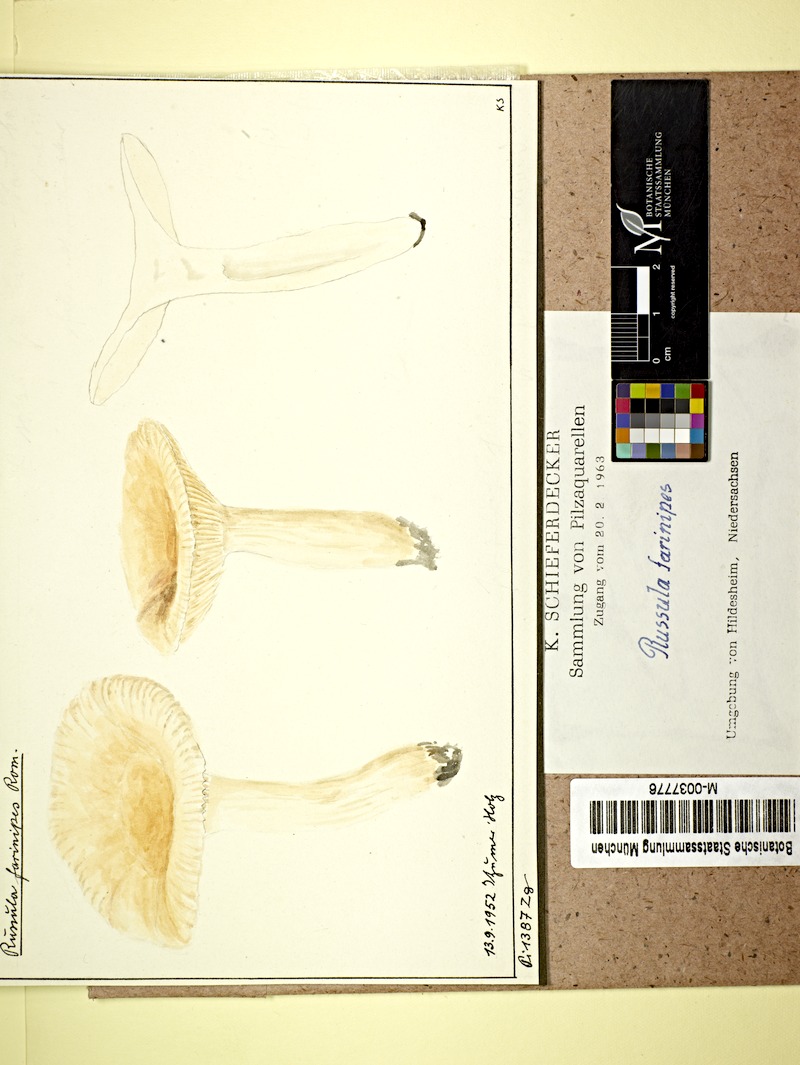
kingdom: Fungi
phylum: Basidiomycota
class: Agaricomycetes
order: Russulales
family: Russulaceae
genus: Russula
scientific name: Russula farinipes
